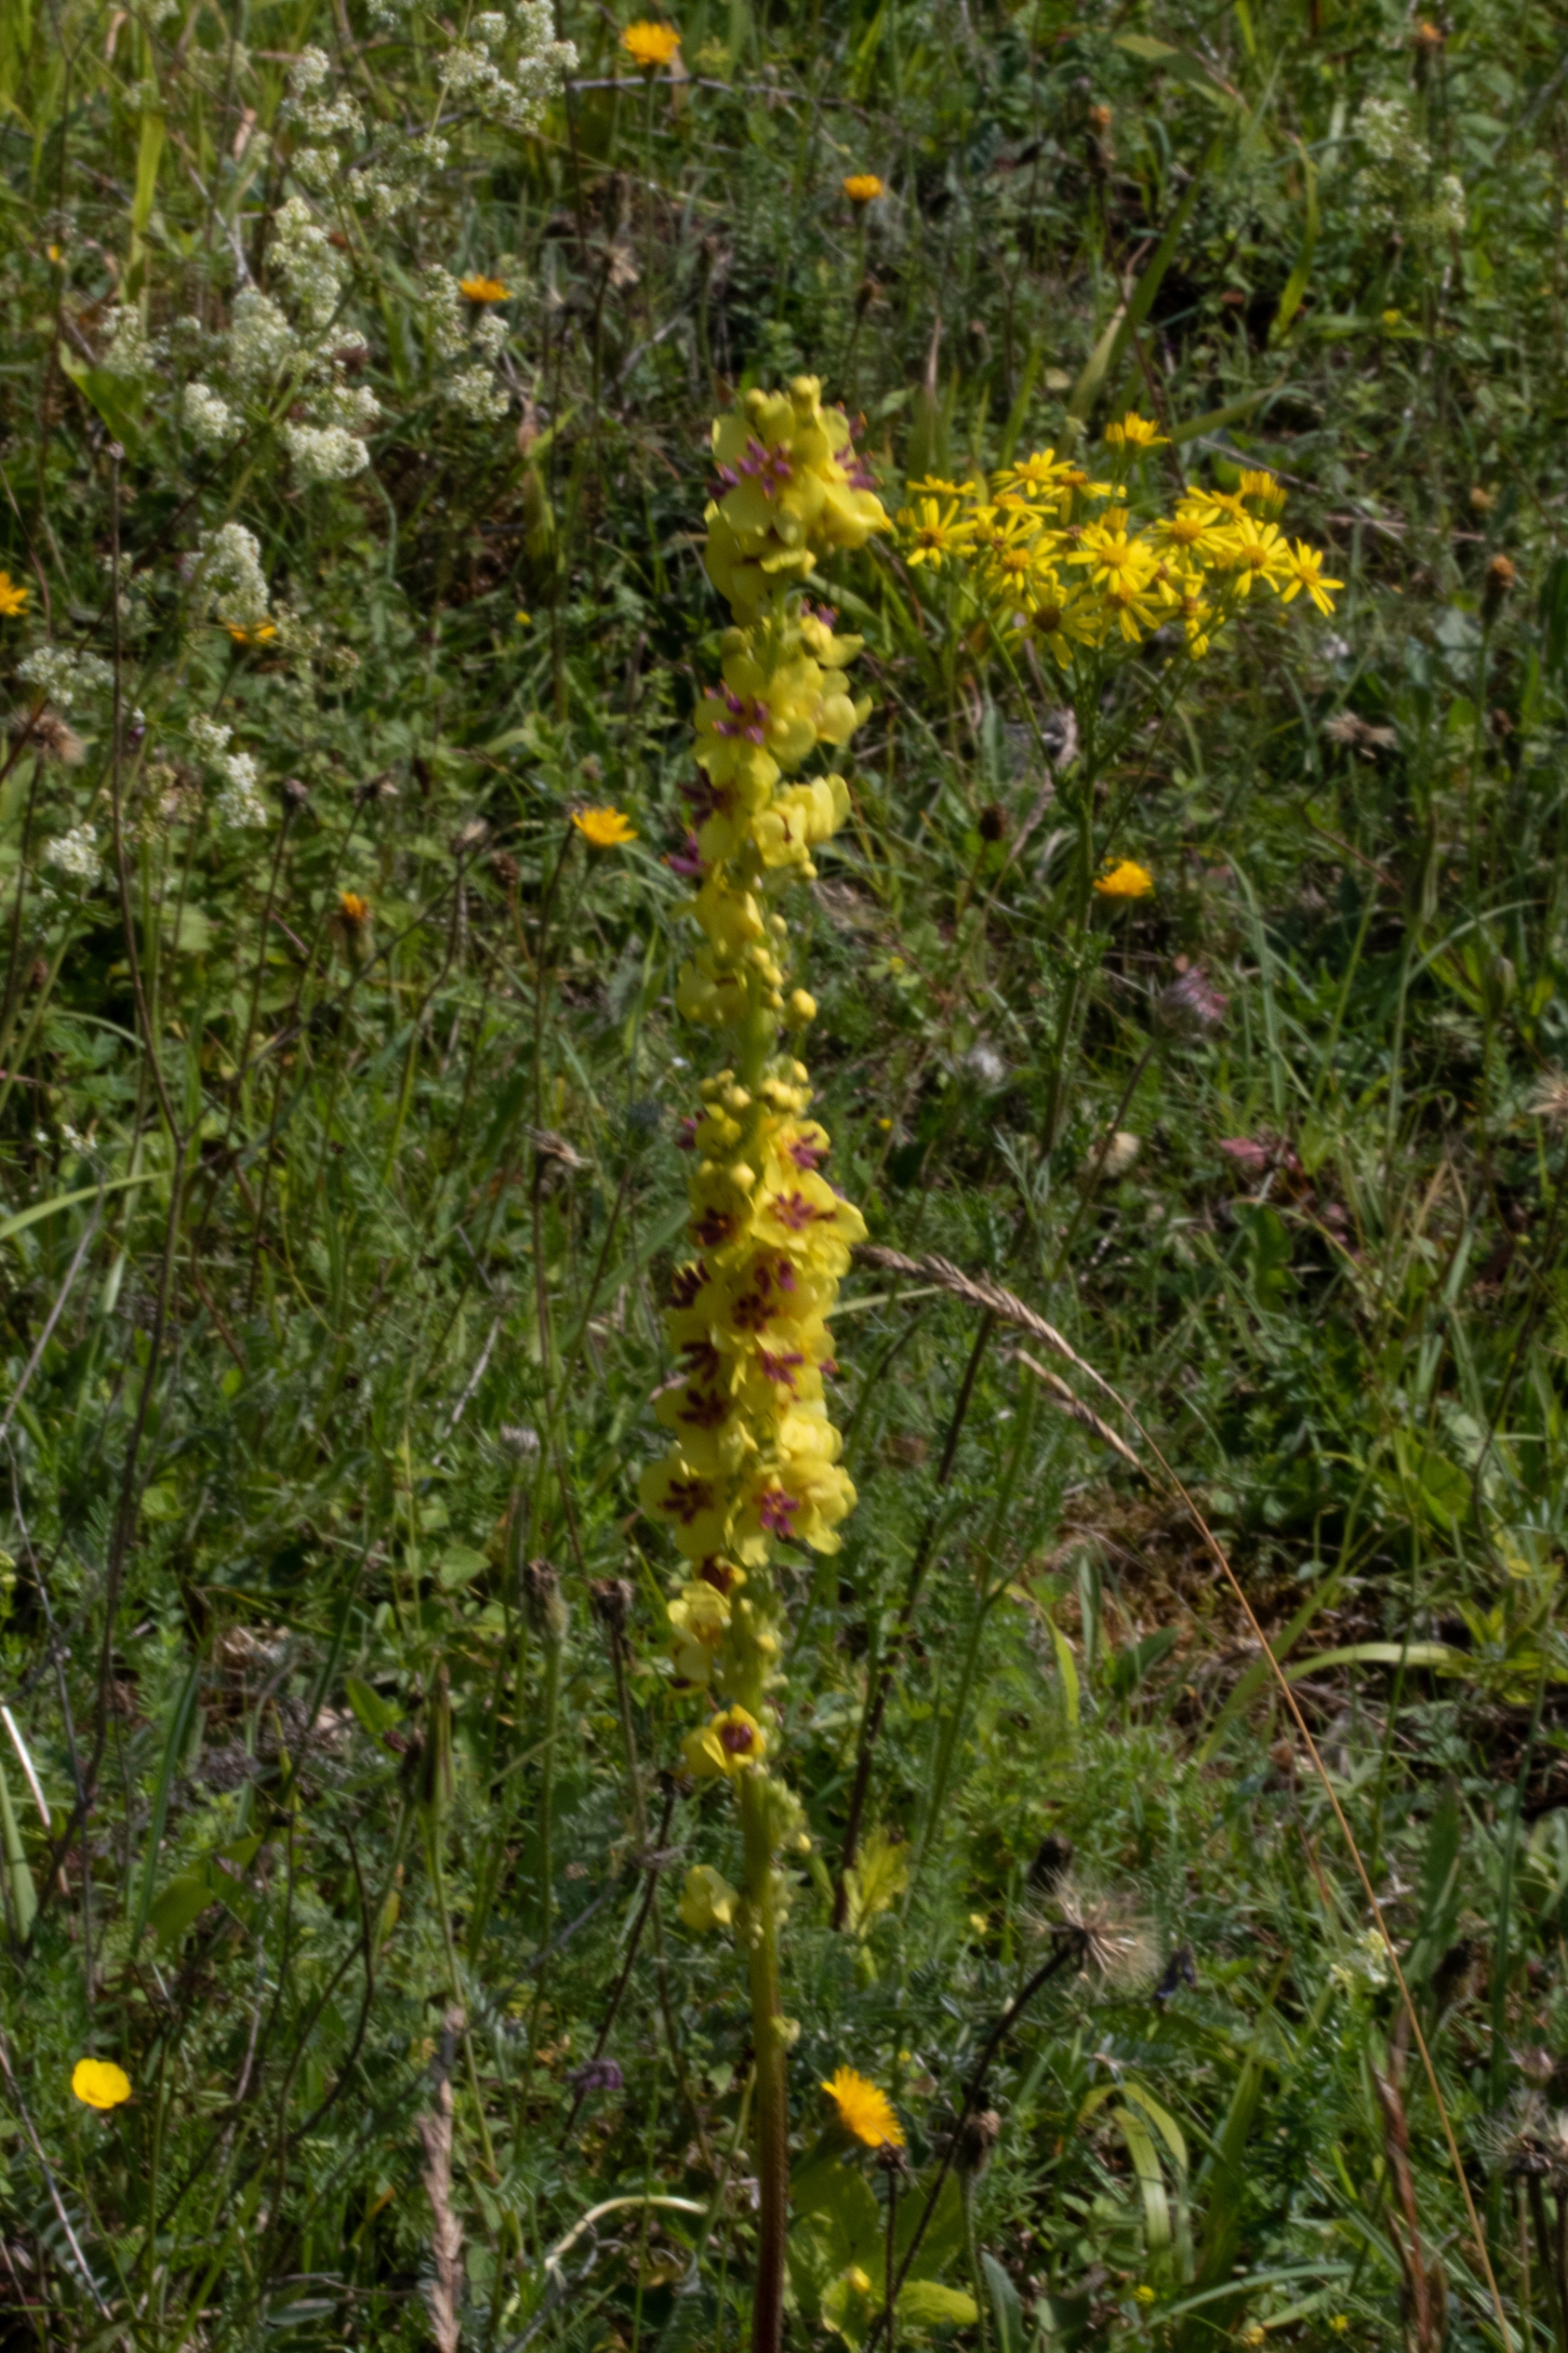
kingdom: Plantae
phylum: Tracheophyta
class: Magnoliopsida
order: Lamiales
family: Scrophulariaceae
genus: Verbascum
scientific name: Verbascum nigrum
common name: Mørk kongelys
